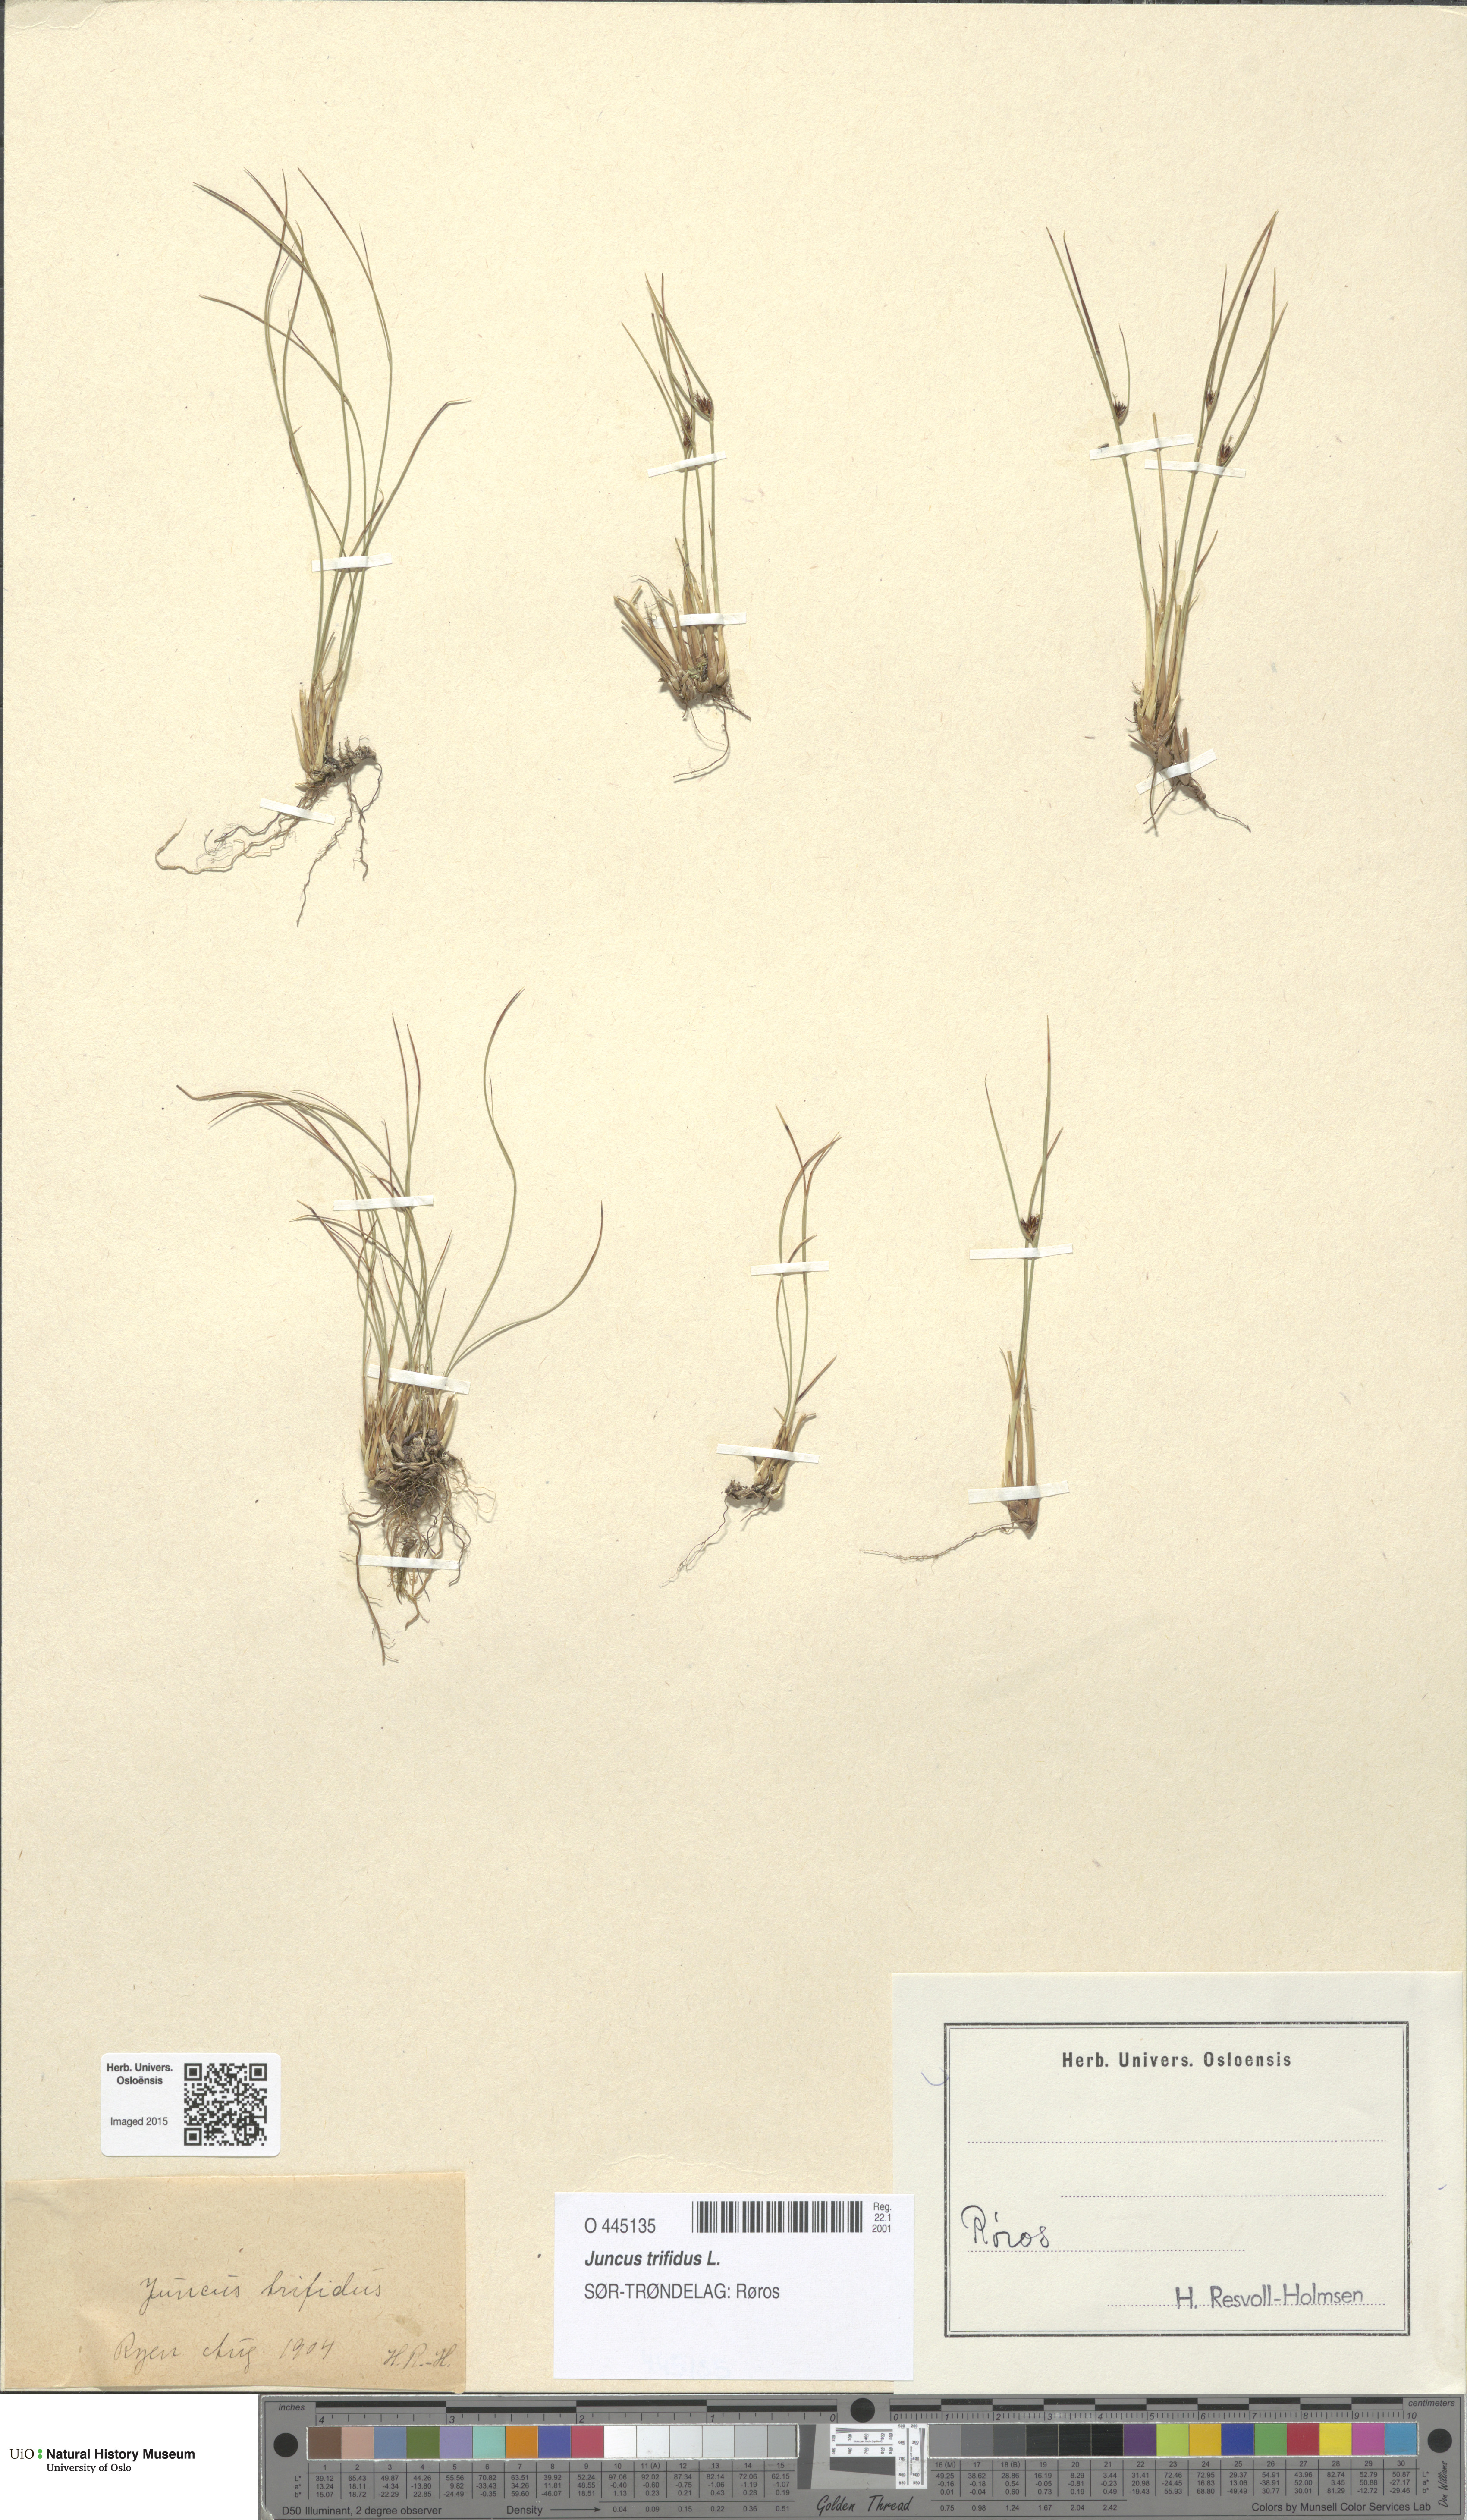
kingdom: Plantae
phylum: Tracheophyta
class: Liliopsida
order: Poales
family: Juncaceae
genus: Oreojuncus
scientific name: Oreojuncus trifidus
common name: Highland rush
